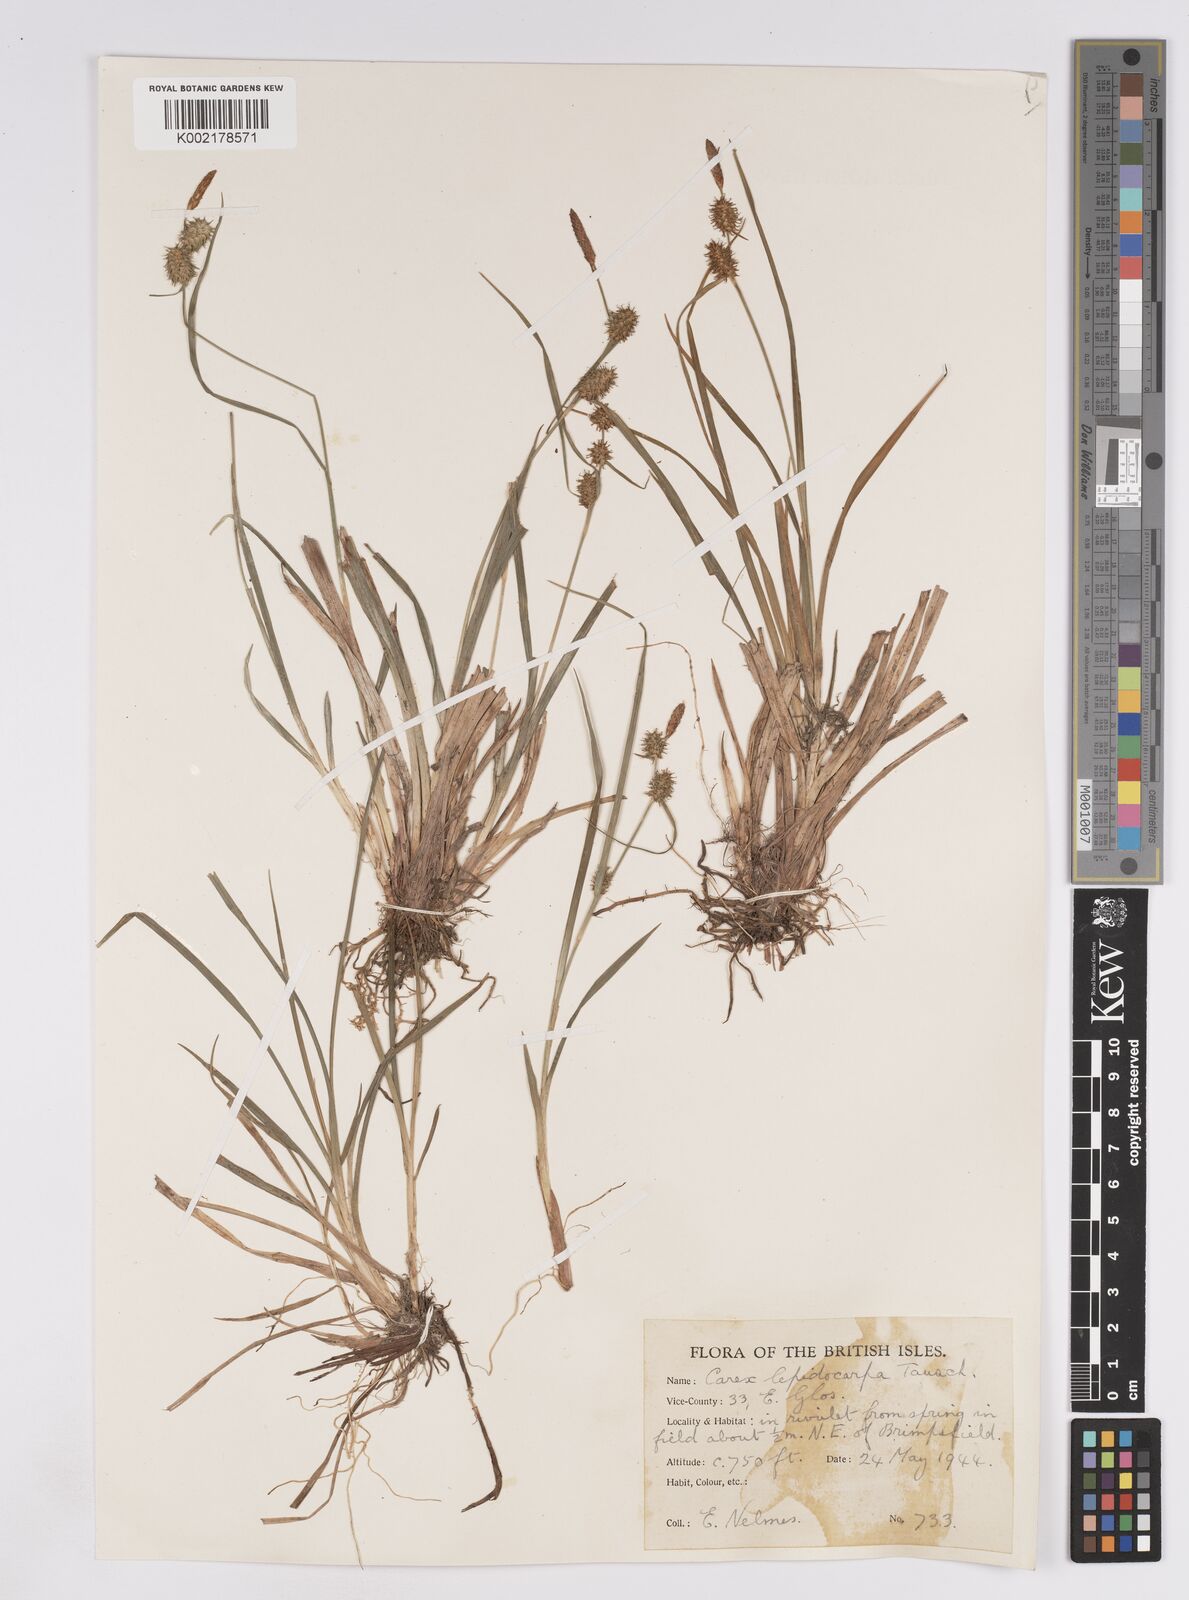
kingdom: Plantae
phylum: Tracheophyta
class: Liliopsida
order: Poales
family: Cyperaceae
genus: Carex
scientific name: Carex lepidocarpa
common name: Long-stalked yellow-sedge
